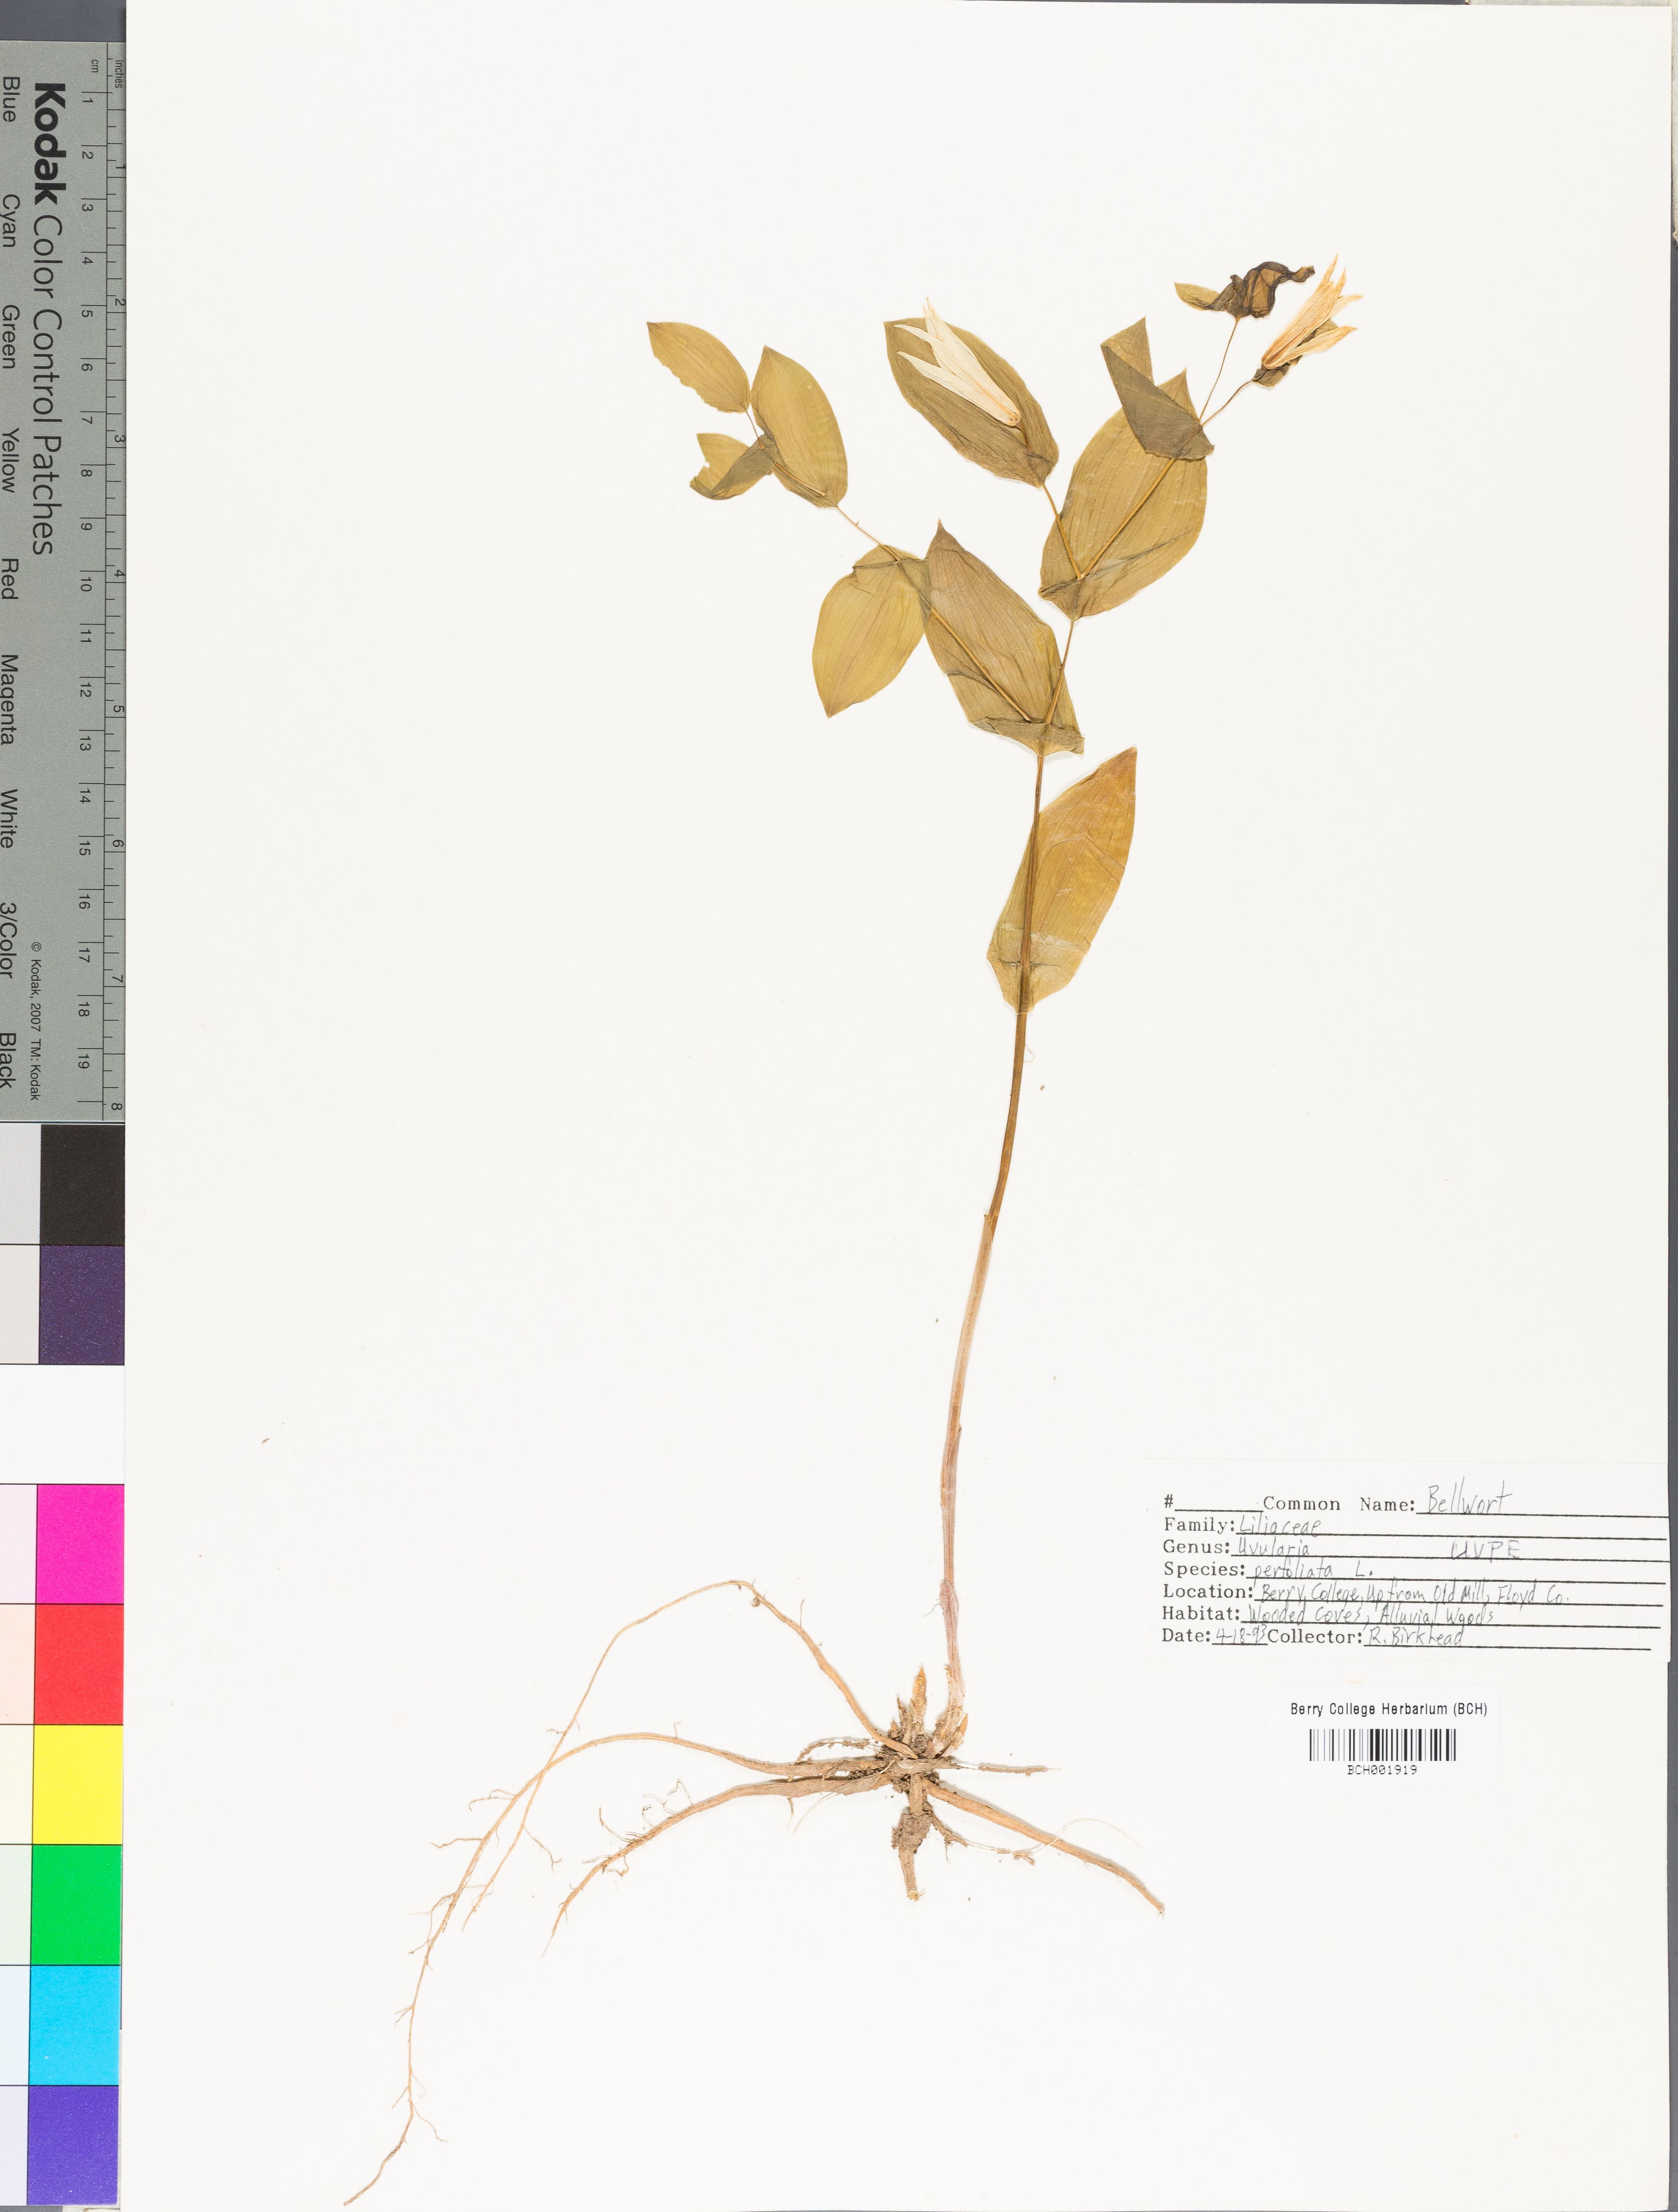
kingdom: Plantae
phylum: Tracheophyta
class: Liliopsida
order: Liliales
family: Colchicaceae
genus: Uvularia
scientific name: Uvularia perfoliata
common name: Perfoliate bellwort
